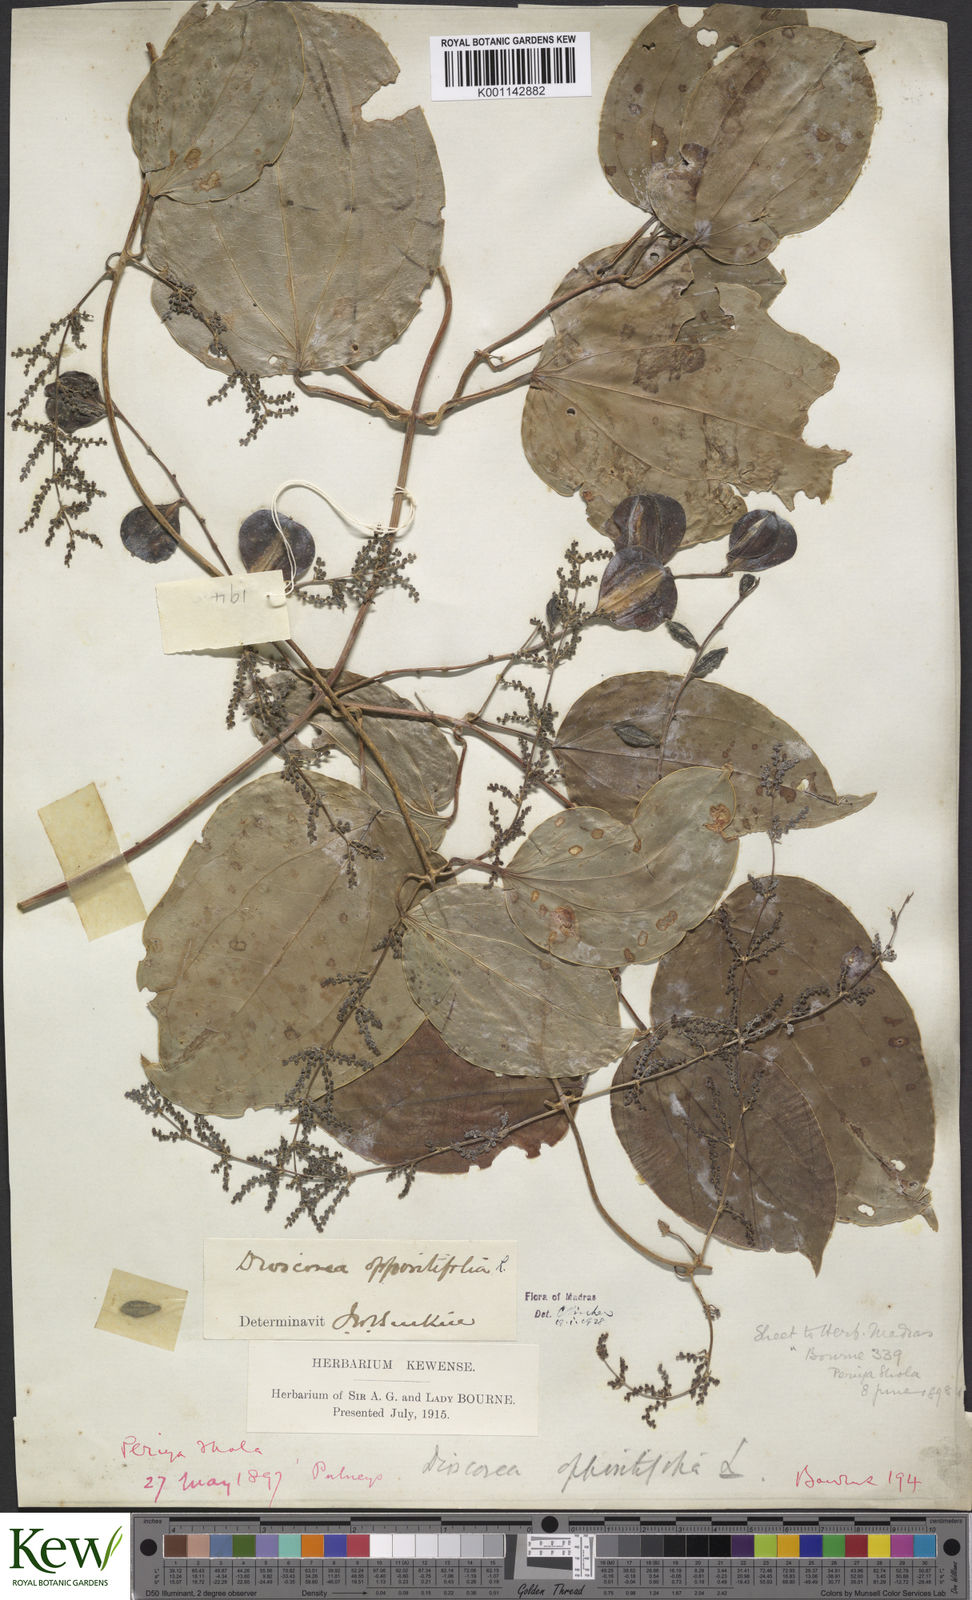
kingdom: Plantae
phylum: Tracheophyta
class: Liliopsida
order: Dioscoreales
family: Dioscoreaceae
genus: Dioscorea
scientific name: Dioscorea oppositifolia
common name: Chinese yam
